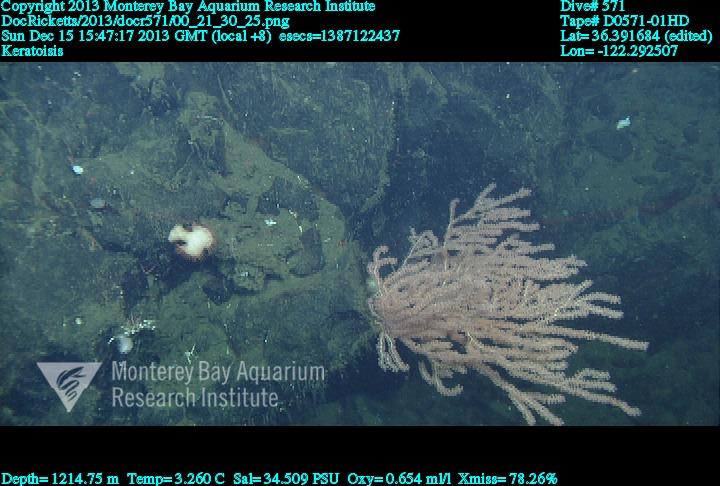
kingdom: Animalia
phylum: Cnidaria
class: Anthozoa
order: Scleralcyonacea
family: Keratoisididae
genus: Keratoisis
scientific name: Keratoisis
